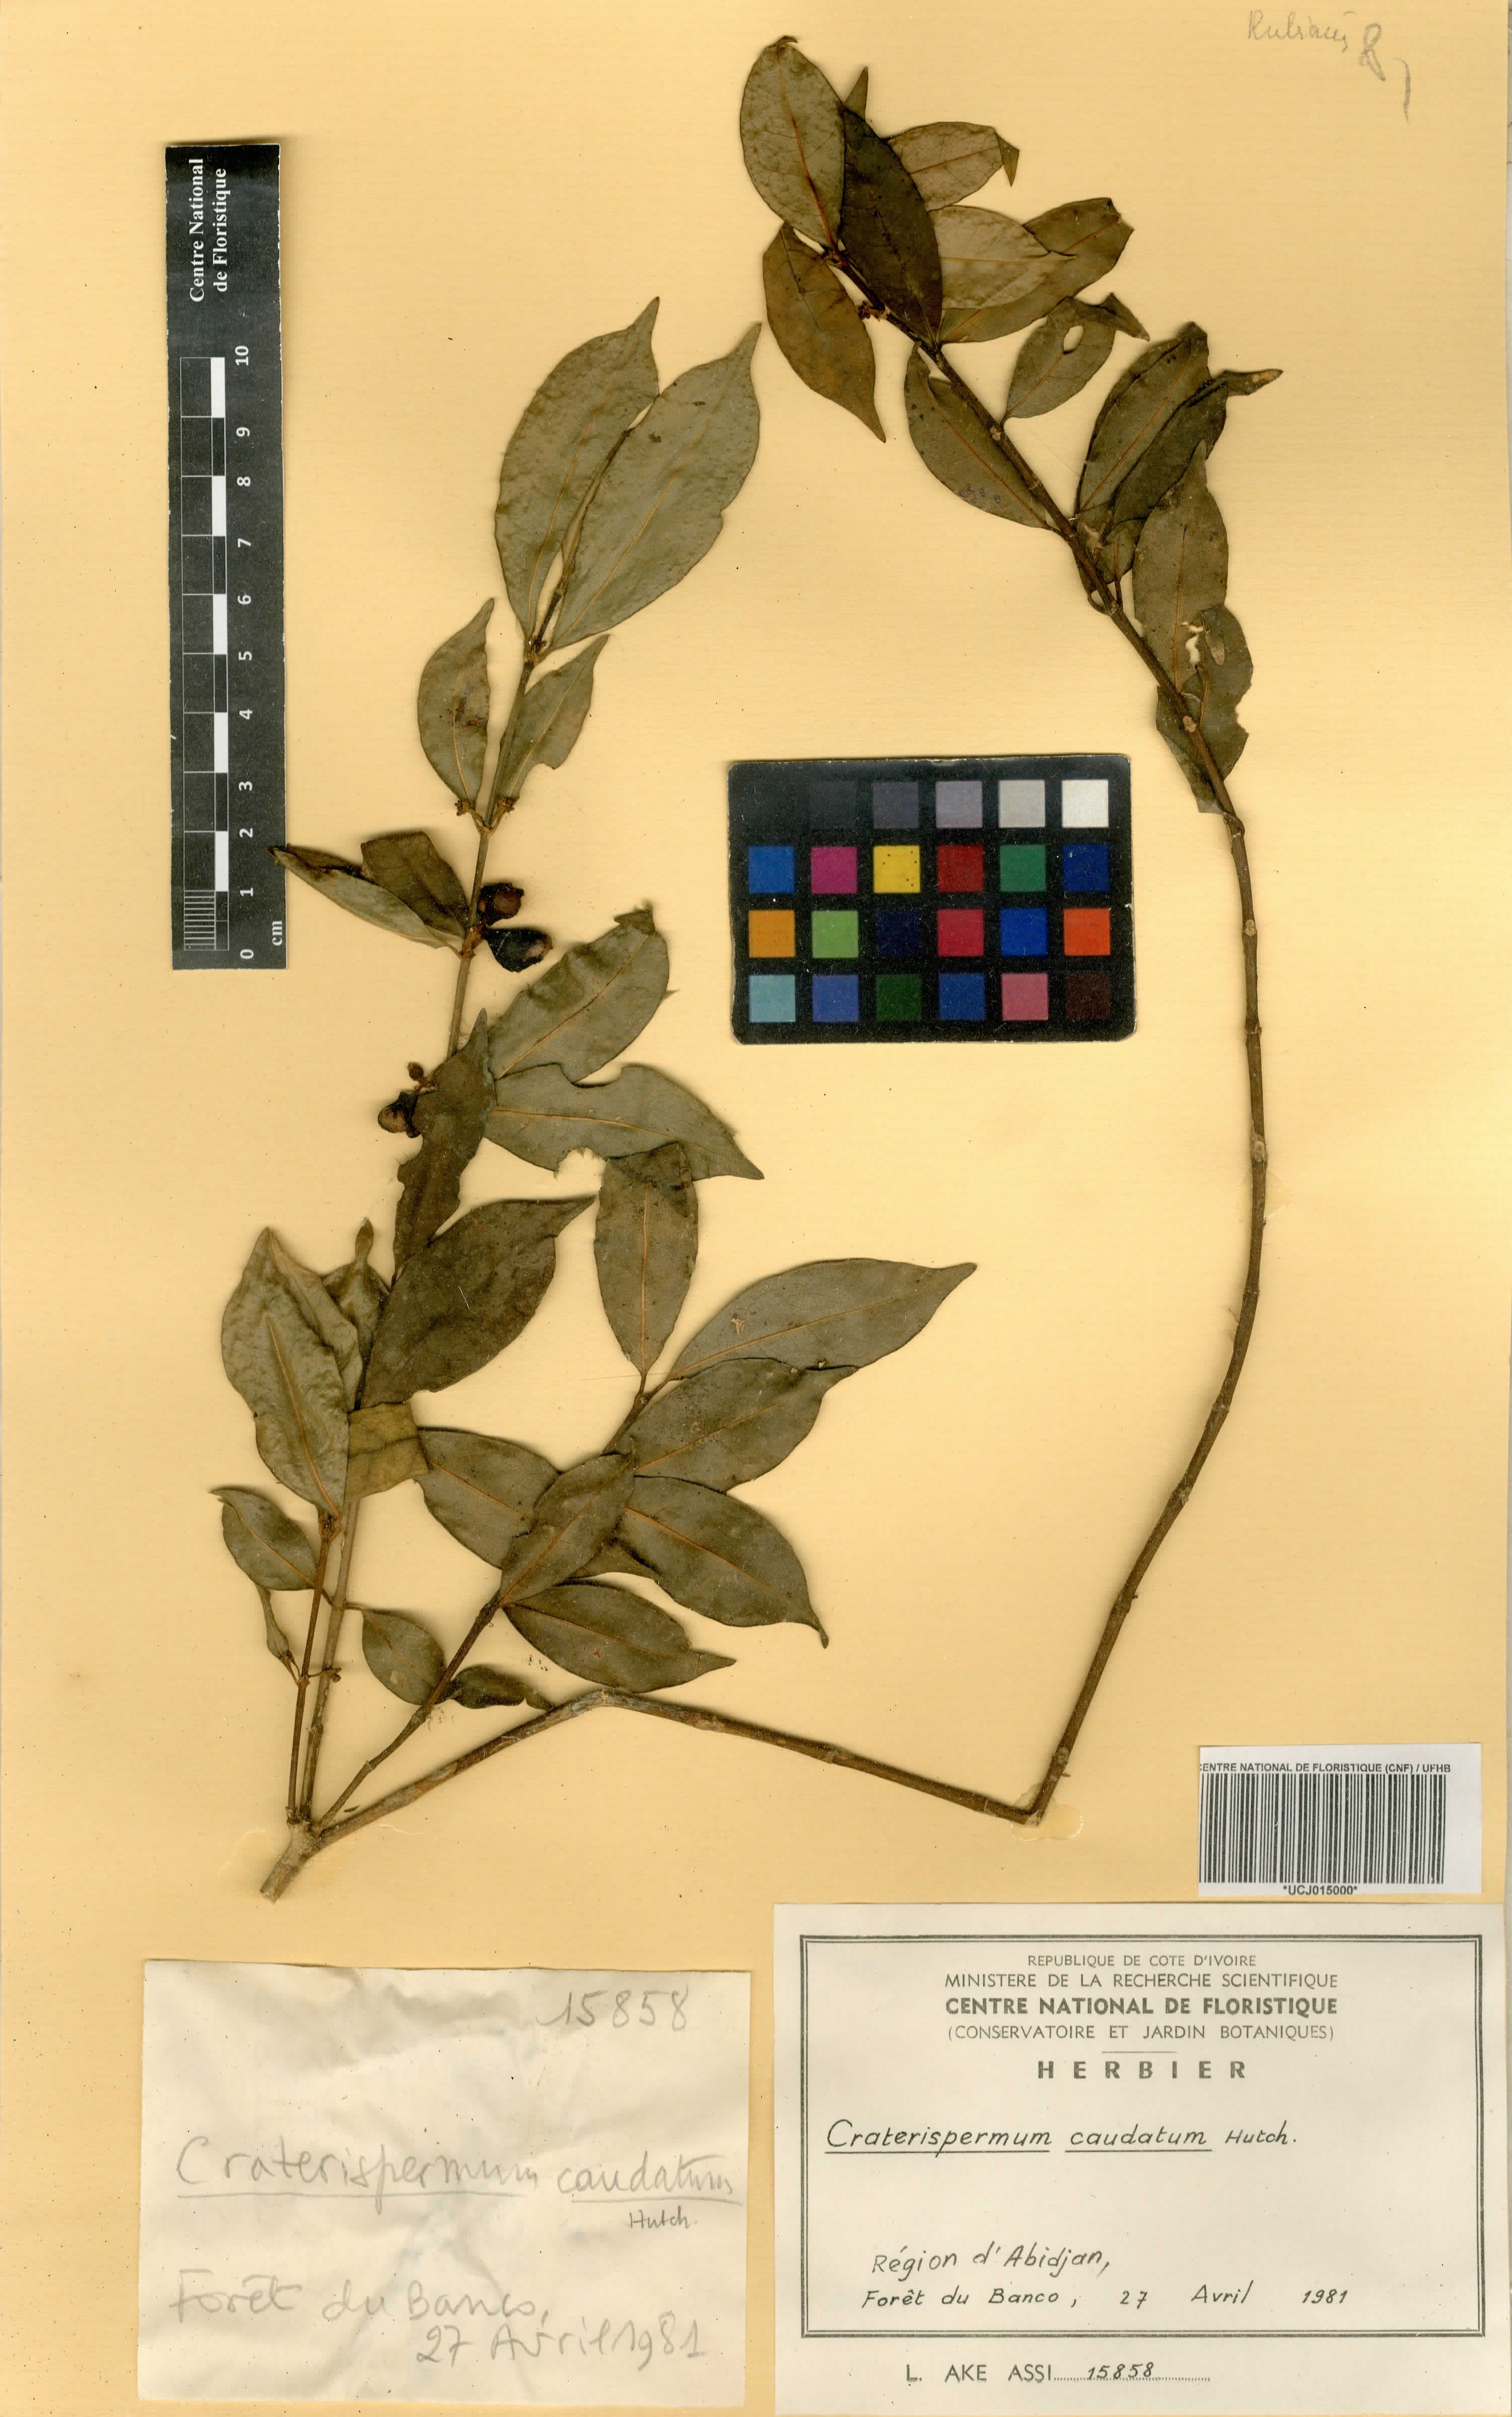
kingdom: Plantae
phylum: Tracheophyta
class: Magnoliopsida
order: Gentianales
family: Rubiaceae
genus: Craterispermum
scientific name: Craterispermum caudatum
